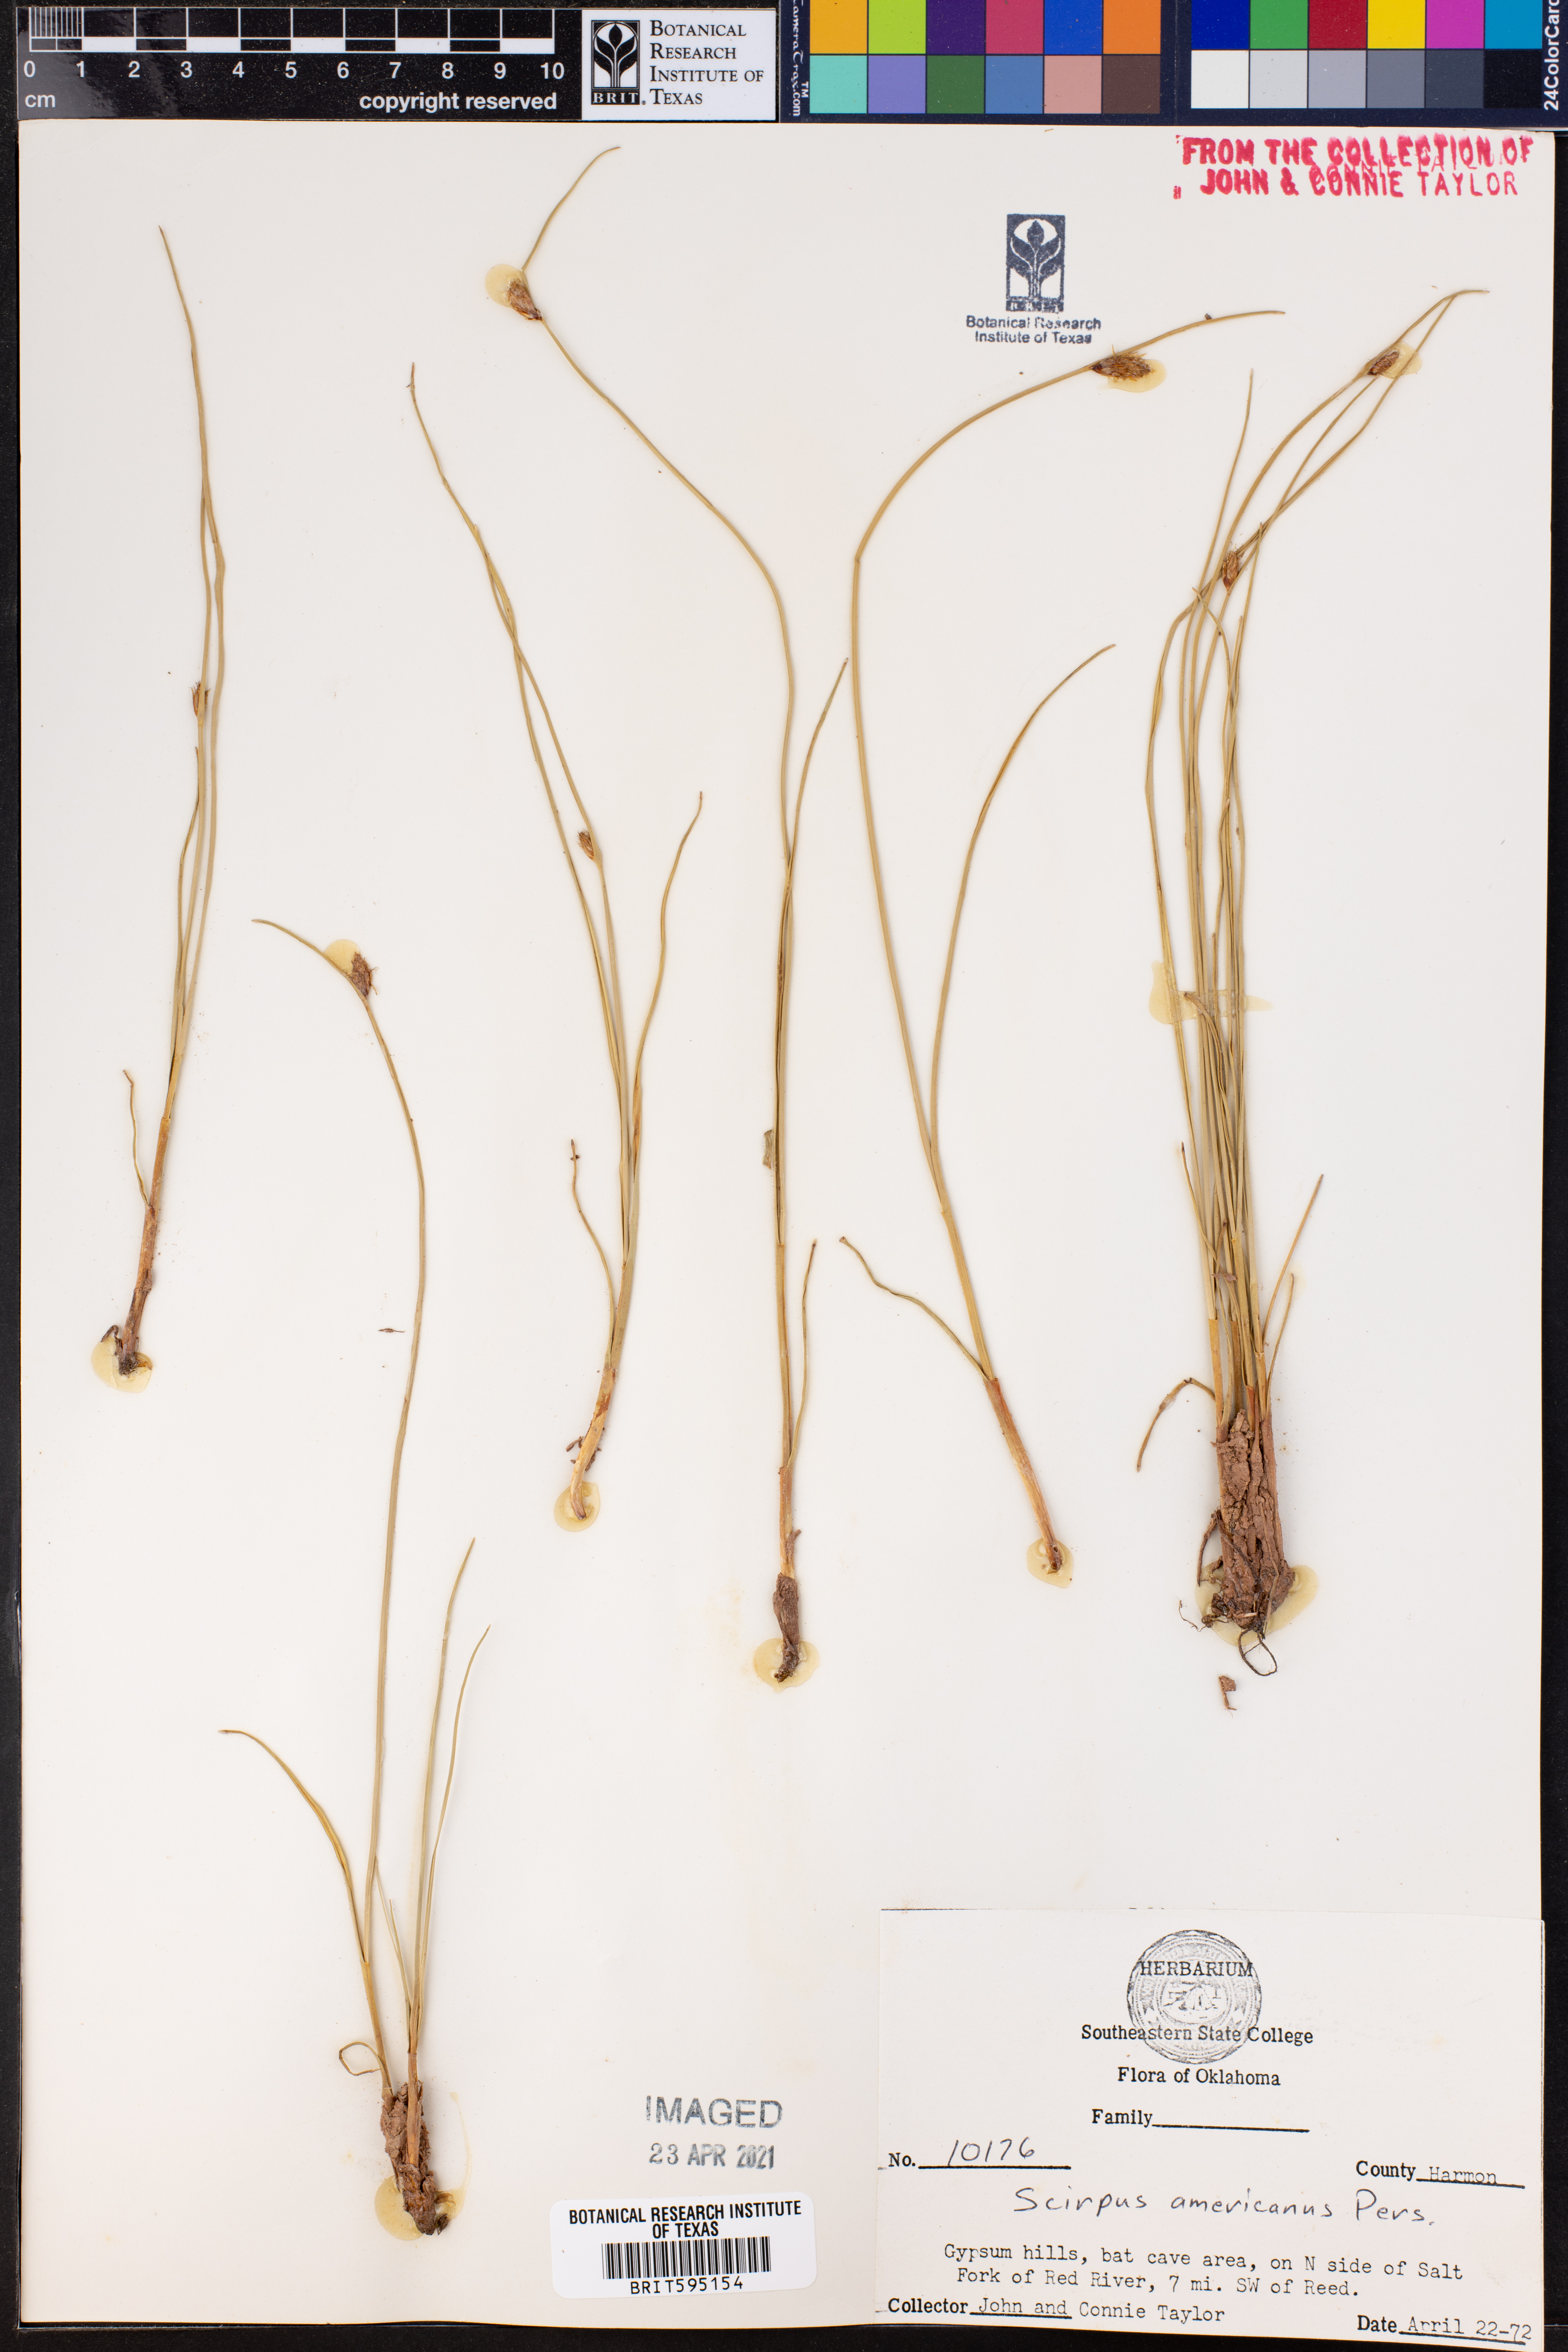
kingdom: Plantae
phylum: Tracheophyta
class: Liliopsida
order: Poales
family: Cyperaceae
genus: Schoenoplectus
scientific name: Schoenoplectus americanus
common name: American three-square bulrush
